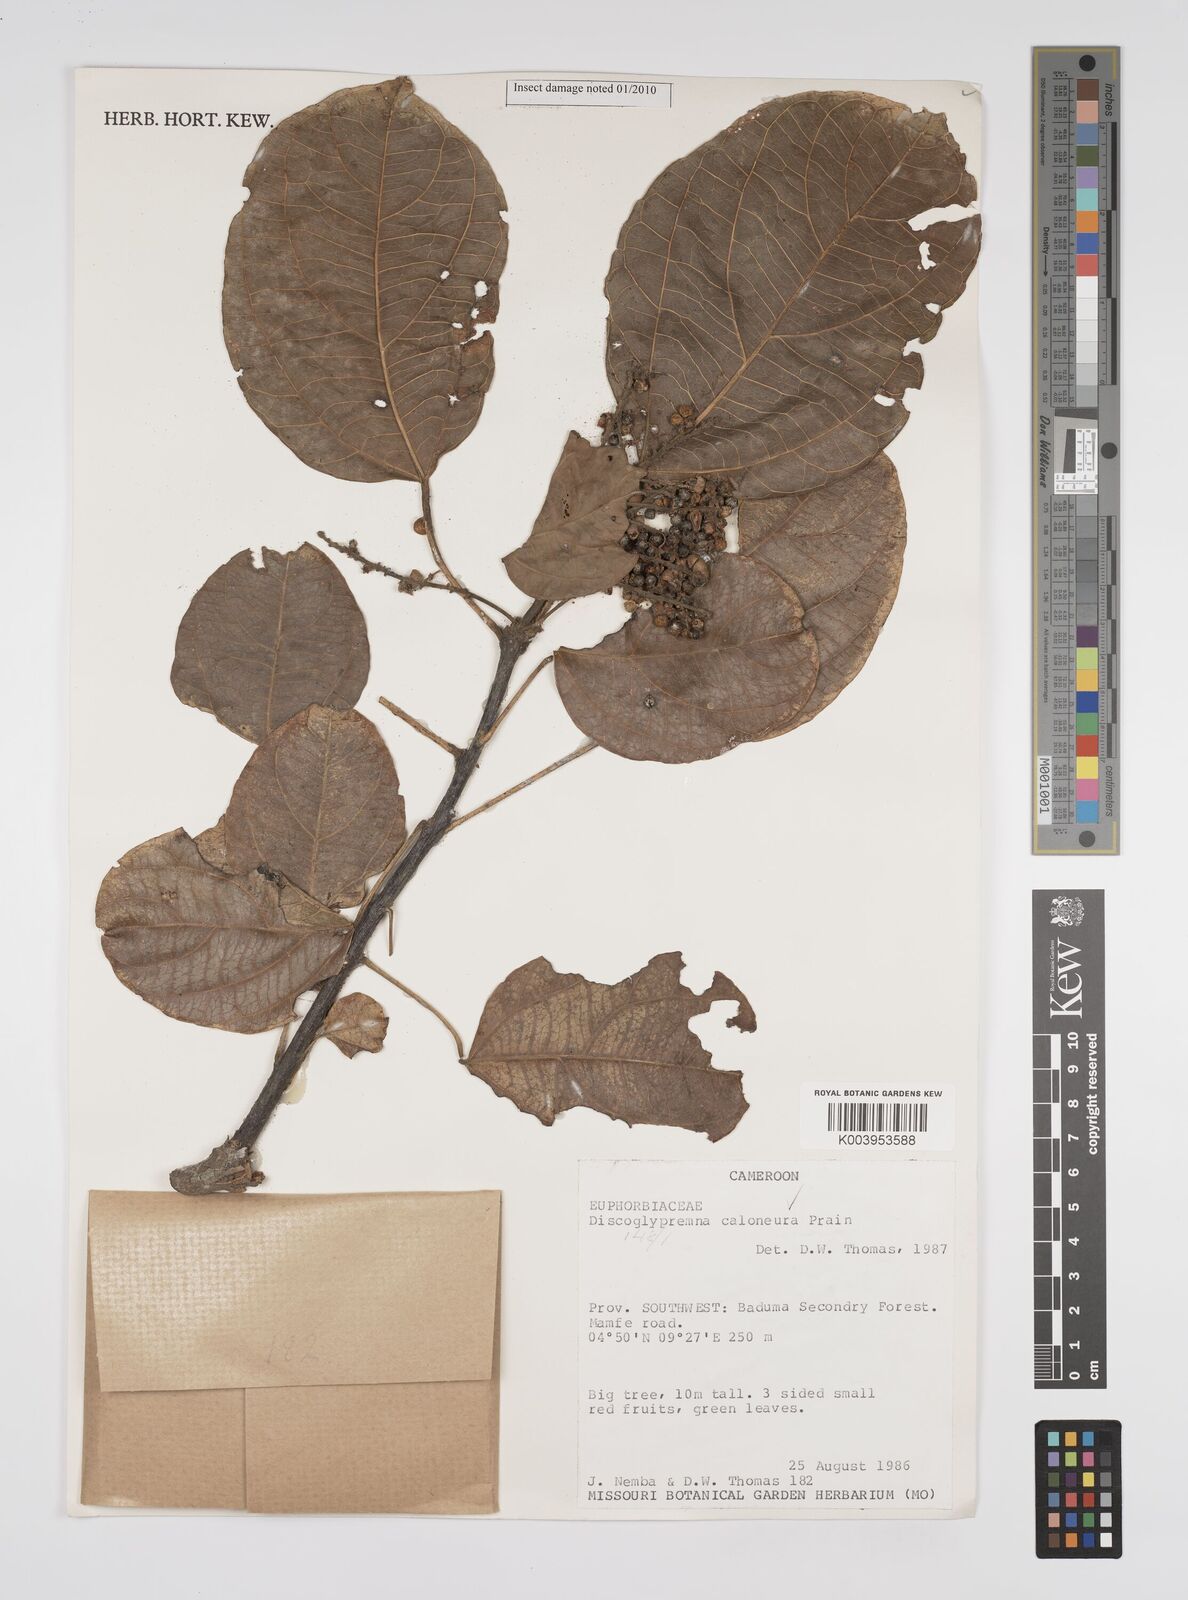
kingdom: Plantae
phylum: Tracheophyta
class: Magnoliopsida
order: Malpighiales
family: Euphorbiaceae
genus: Discoglypremna
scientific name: Discoglypremna caloneura
